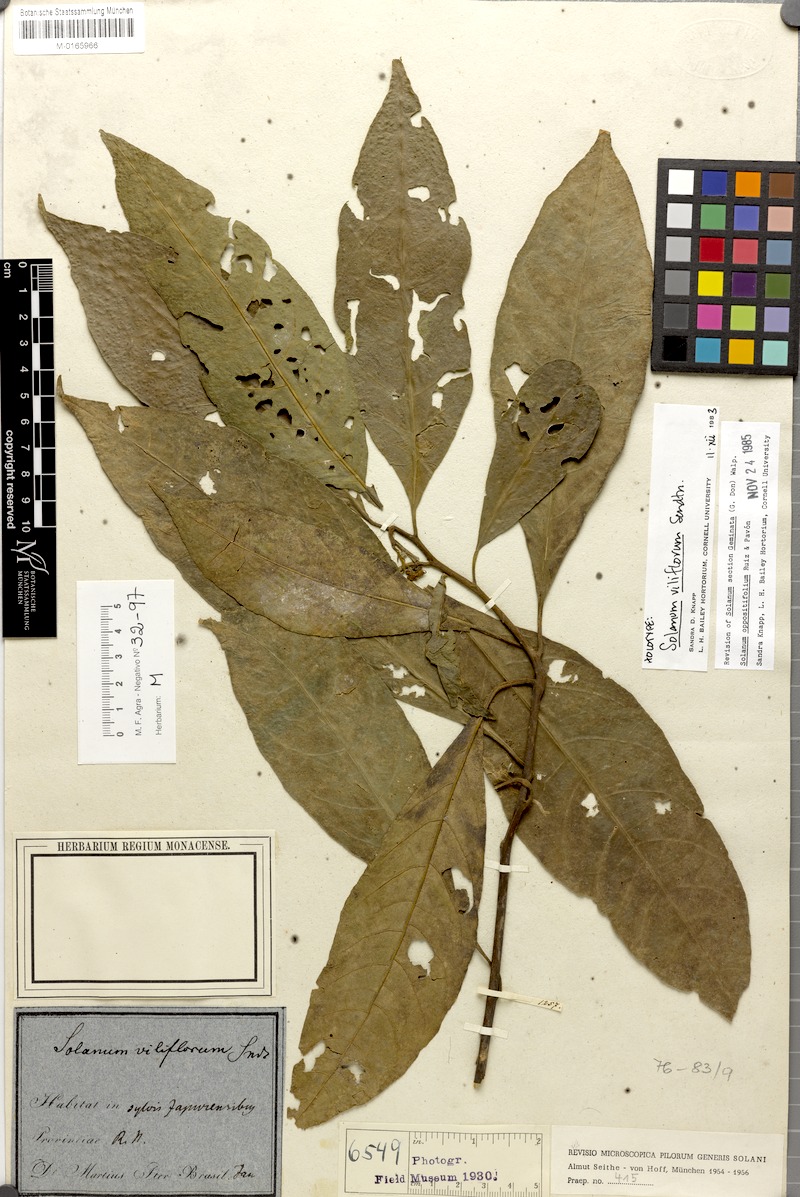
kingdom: Plantae
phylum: Tracheophyta
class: Magnoliopsida
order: Solanales
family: Solanaceae
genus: Solanum
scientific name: Solanum oppositifolium
